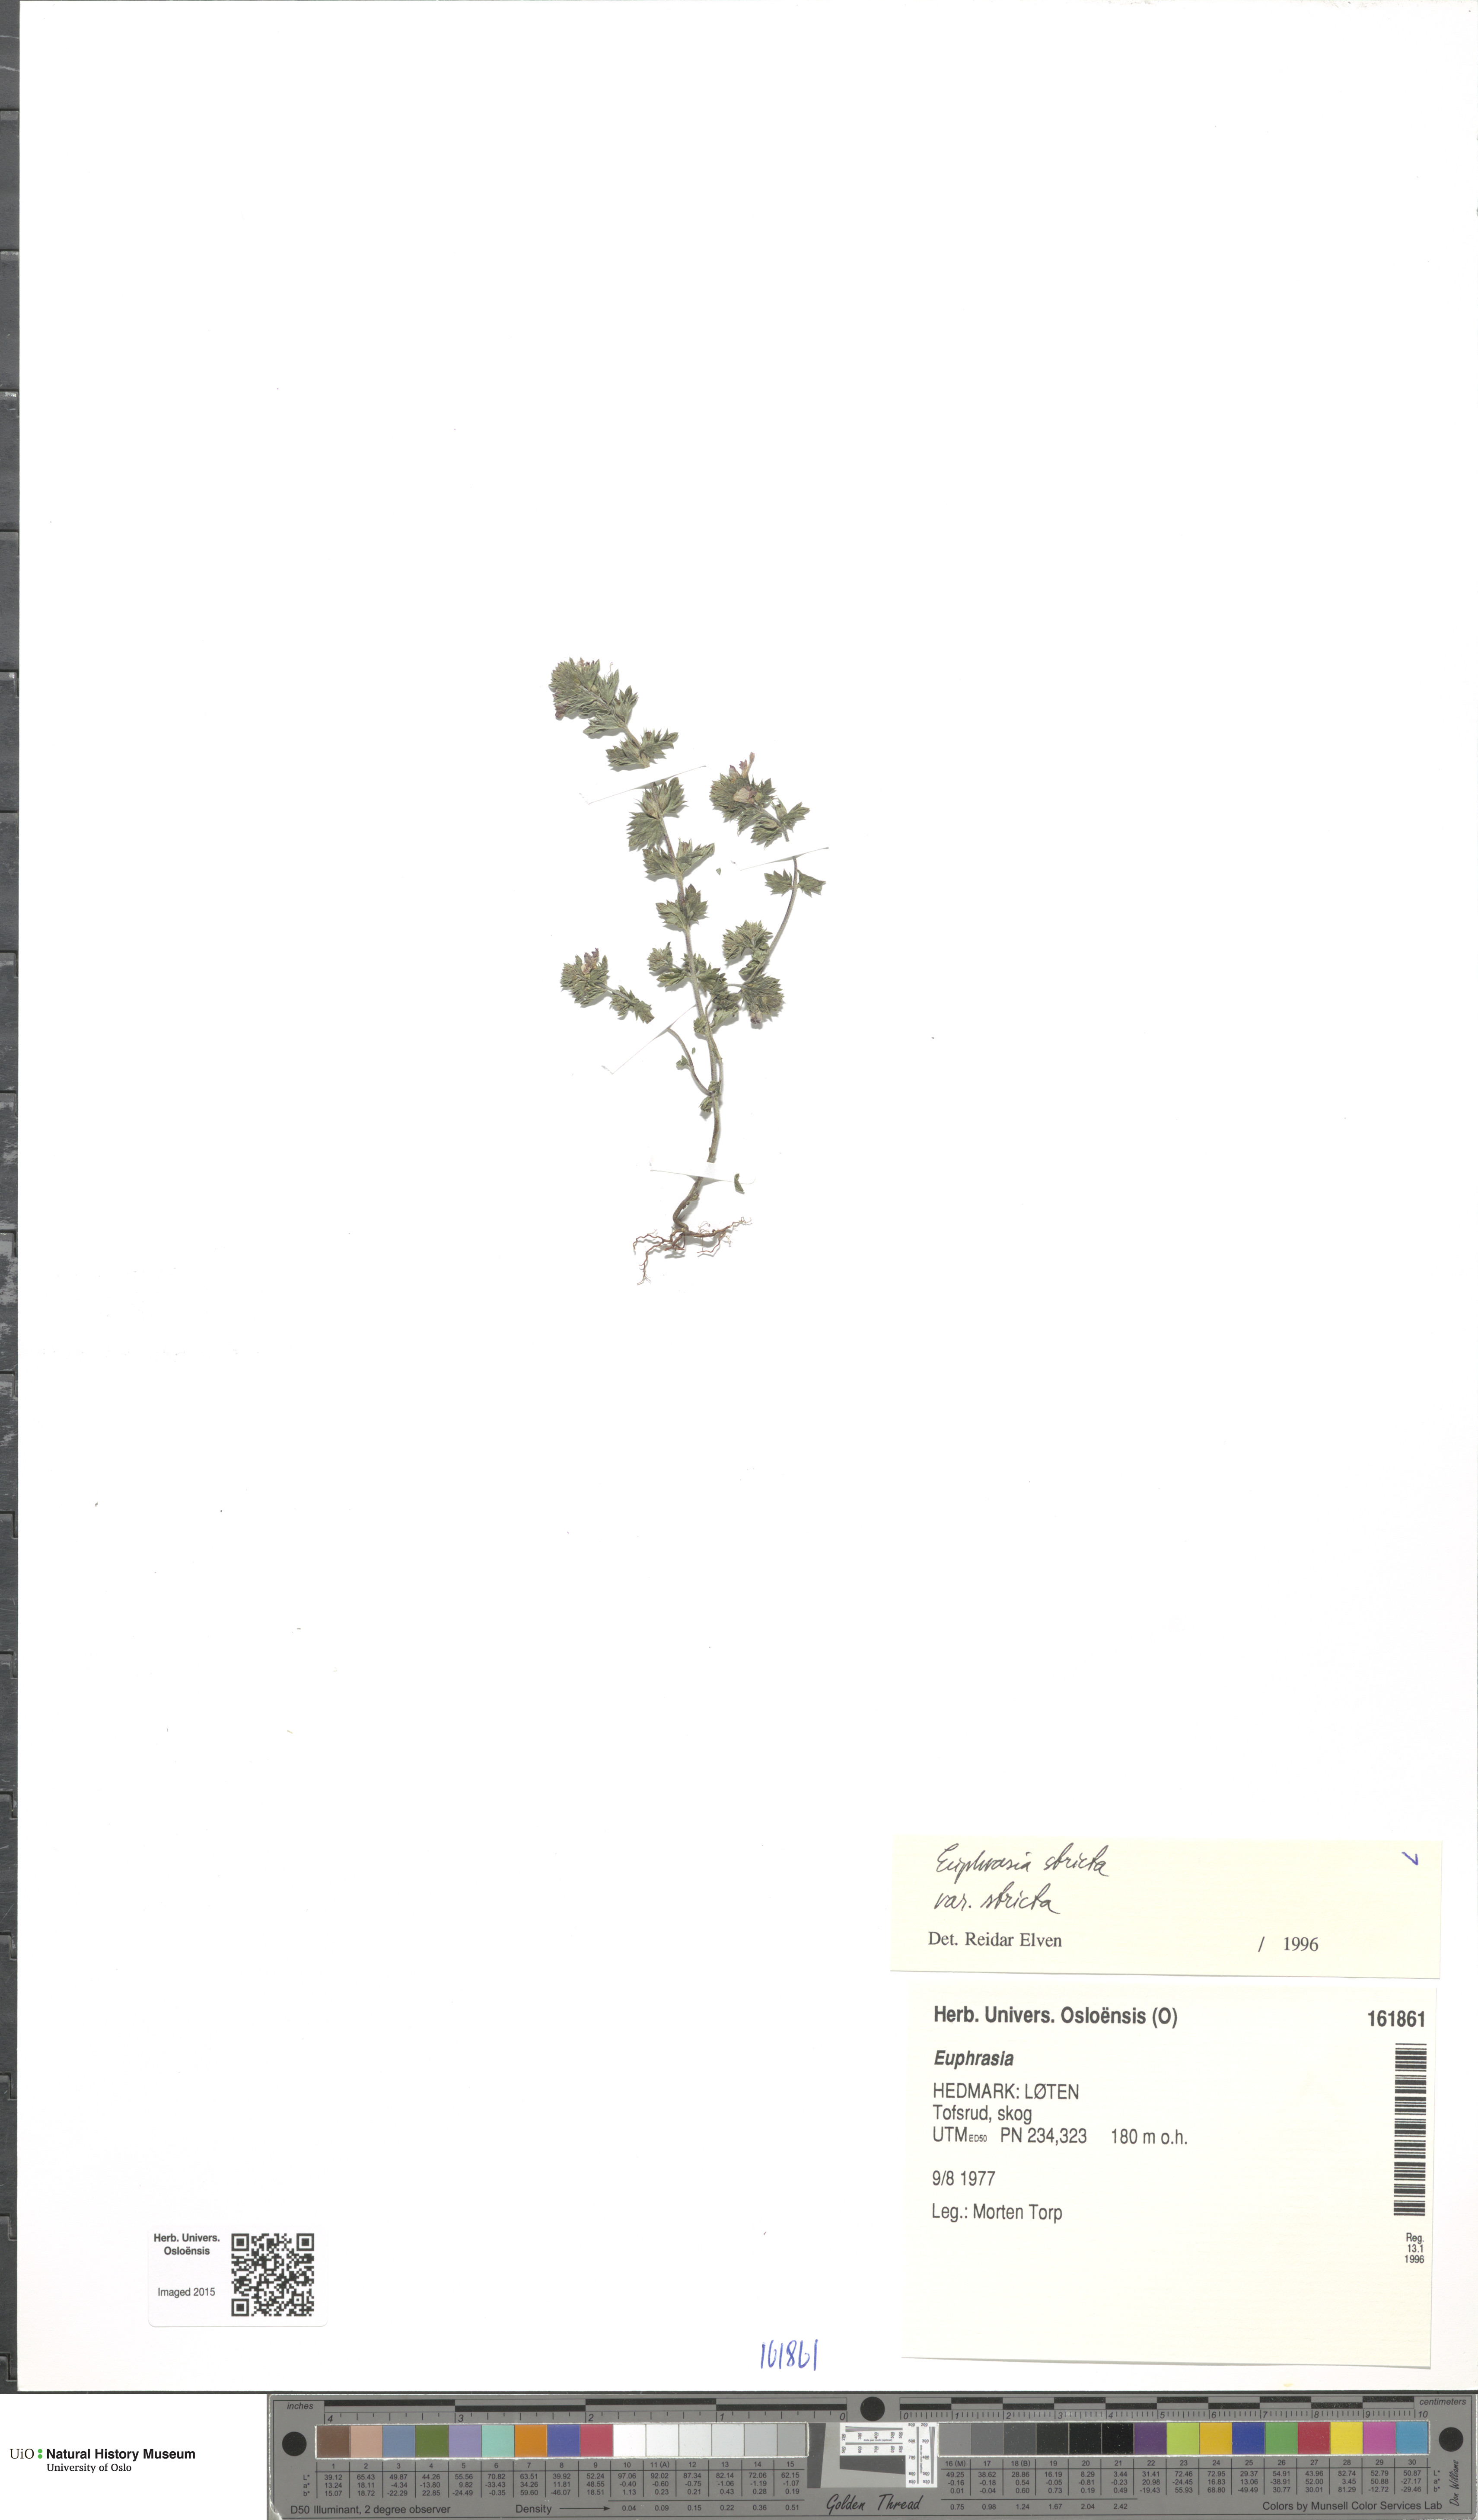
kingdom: Plantae
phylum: Tracheophyta
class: Magnoliopsida
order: Lamiales
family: Orobanchaceae
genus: Euphrasia
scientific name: Euphrasia stricta
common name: Drug eyebright
